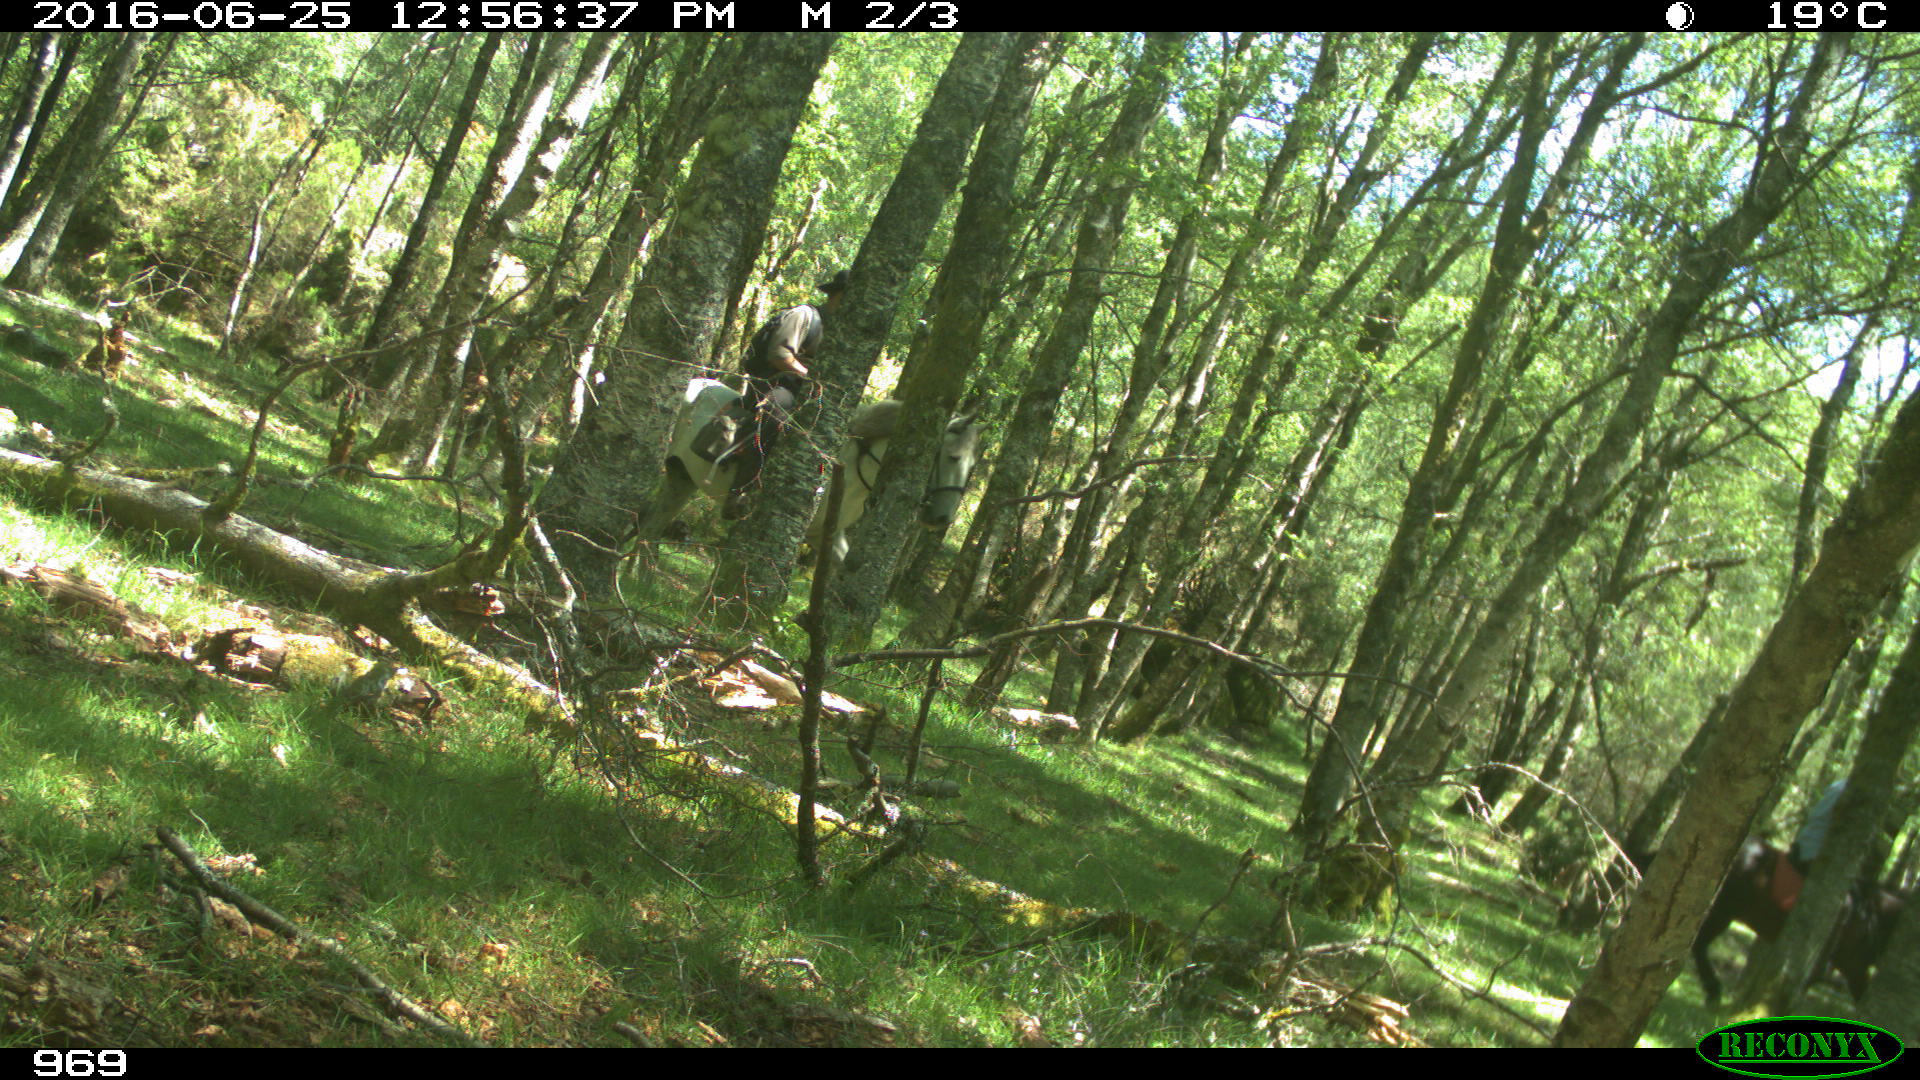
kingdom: Animalia
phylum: Chordata
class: Mammalia
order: Perissodactyla
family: Equidae
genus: Equus
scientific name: Equus caballus
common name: Horse
